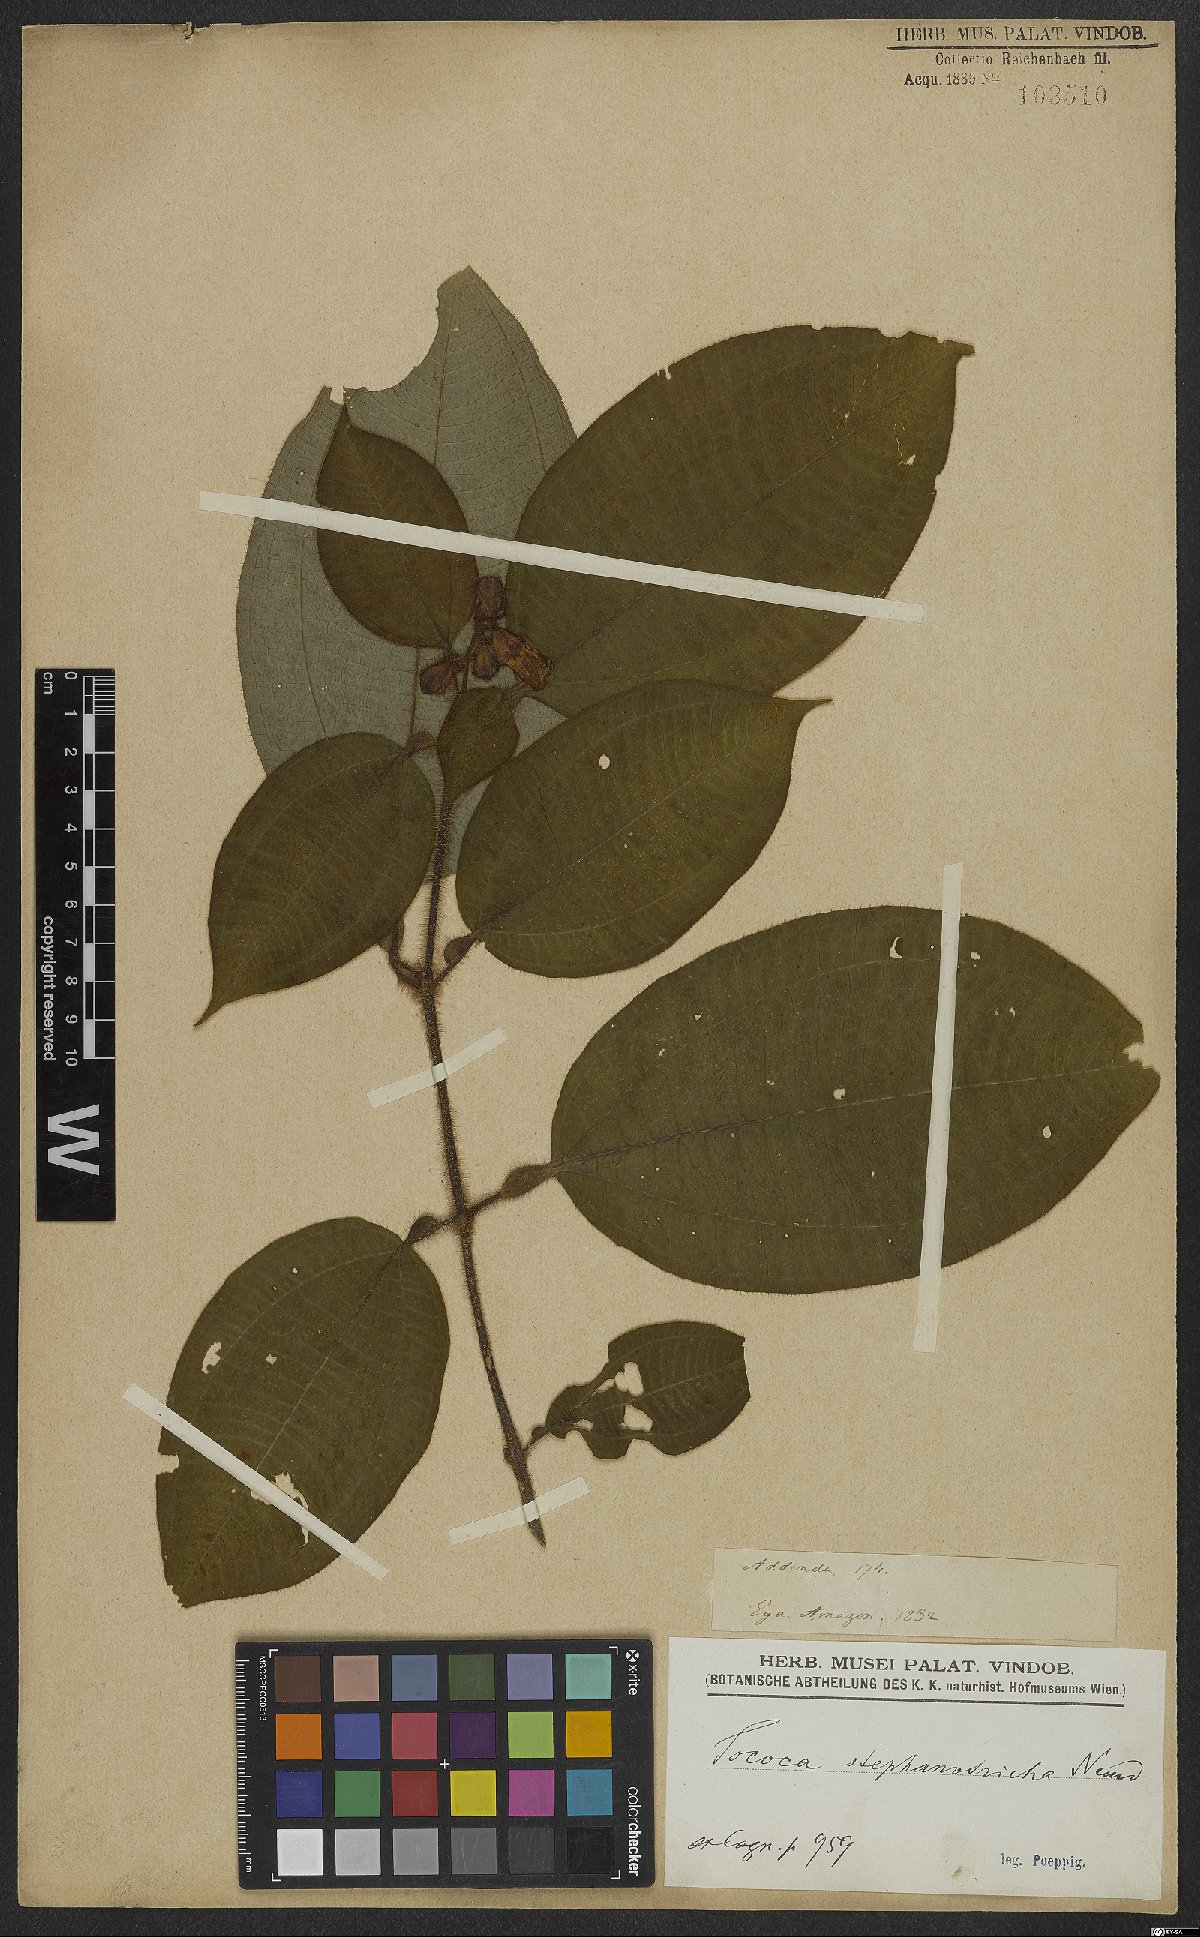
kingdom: Plantae
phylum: Tracheophyta
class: Magnoliopsida
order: Myrtales
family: Melastomataceae
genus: Miconia
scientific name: Miconia stephanotricha
